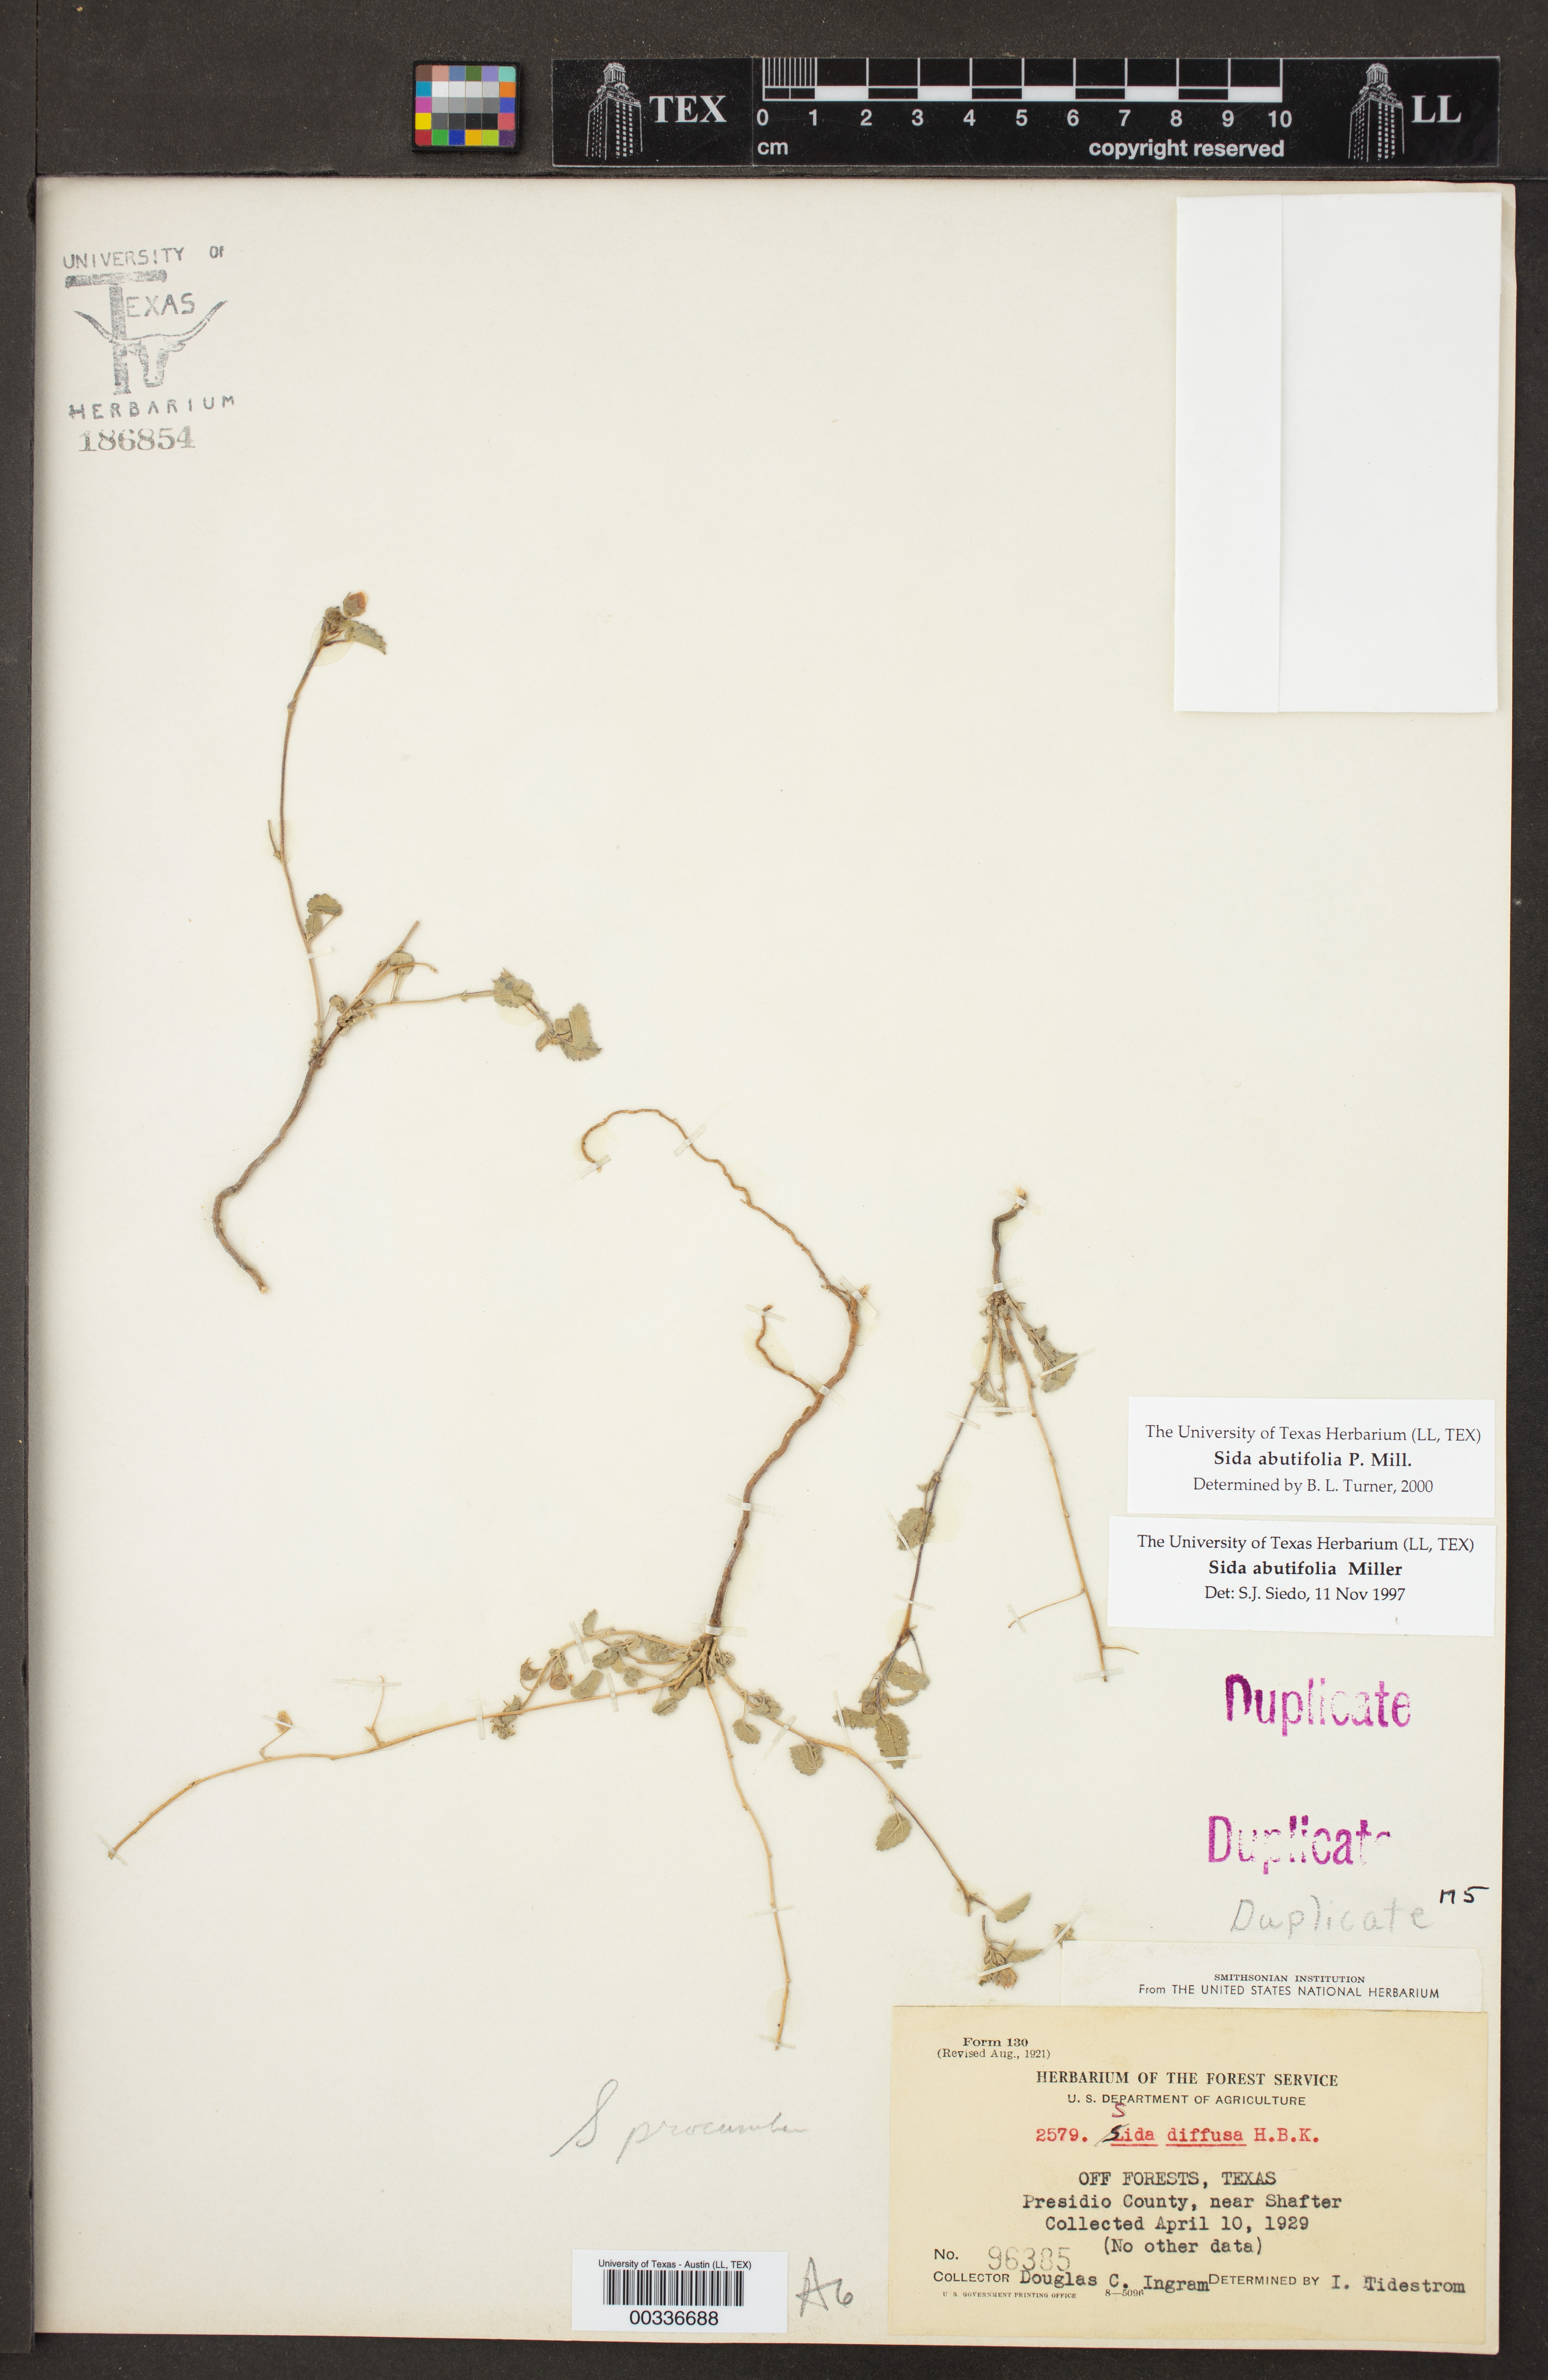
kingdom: Plantae
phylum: Tracheophyta
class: Magnoliopsida
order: Malvales
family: Malvaceae
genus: Sida
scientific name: Sida abutilifolia
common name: Spreading fanpetals
